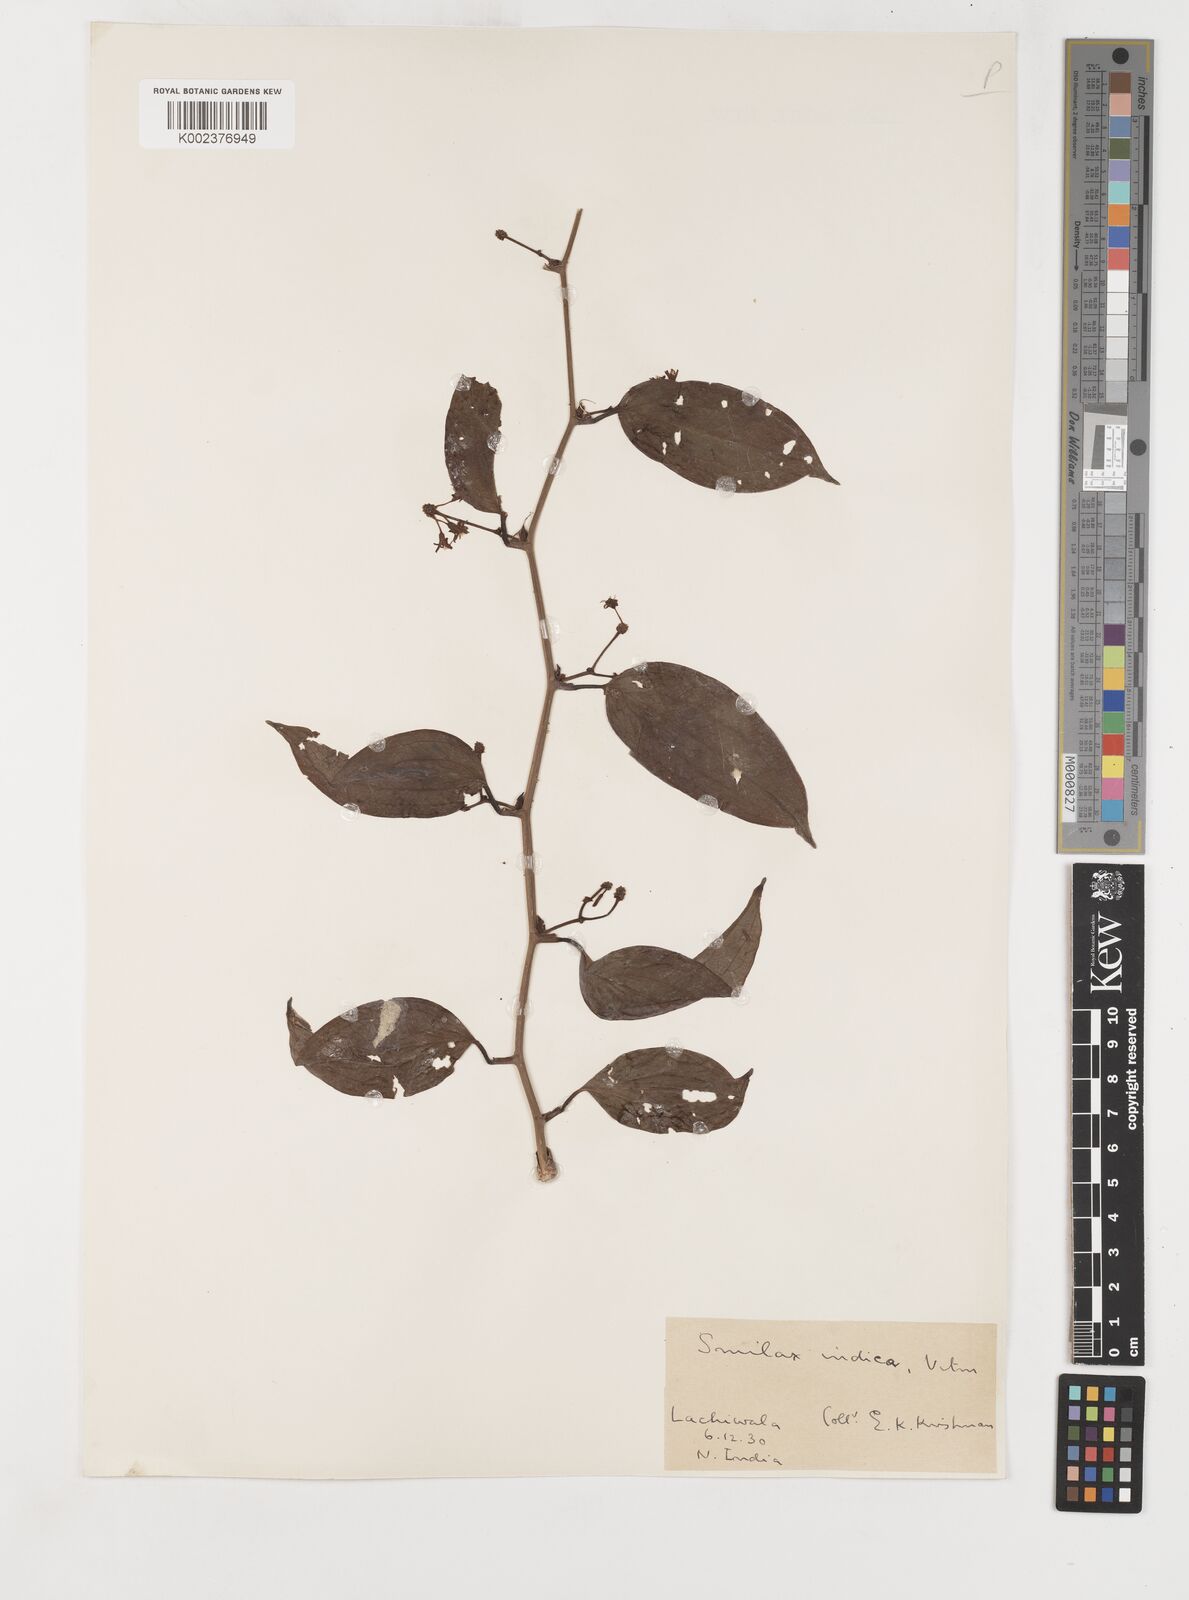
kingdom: Plantae
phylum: Tracheophyta
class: Liliopsida
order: Liliales
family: Smilacaceae
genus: Smilax
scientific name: Smilax zeylanica
